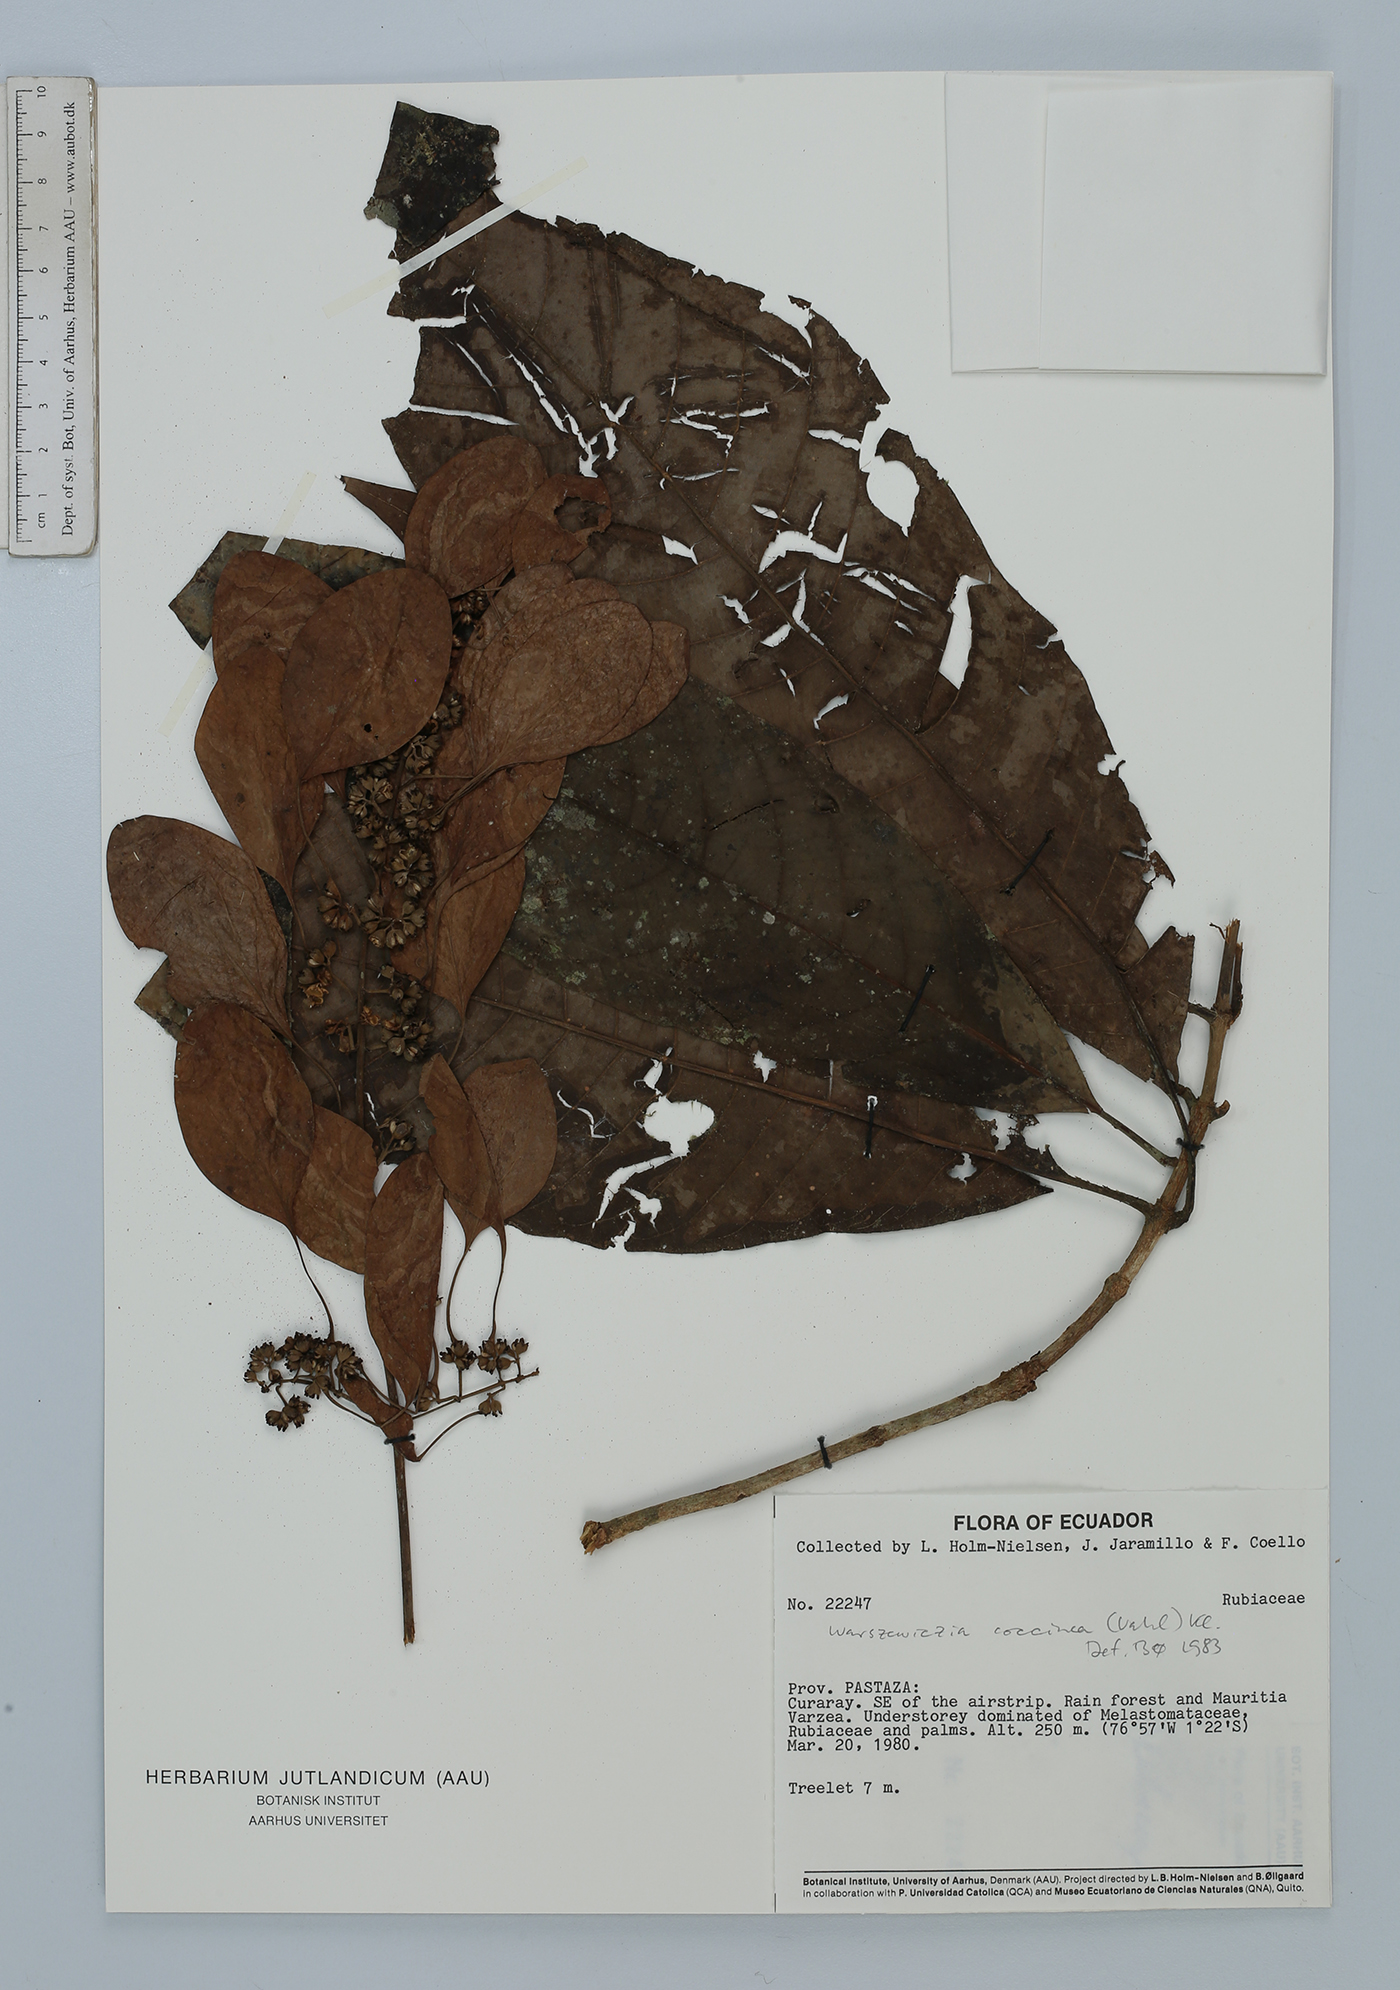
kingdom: Plantae
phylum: Tracheophyta
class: Magnoliopsida
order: Gentianales
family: Rubiaceae
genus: Warszewiczia
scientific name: Warszewiczia coccinea
